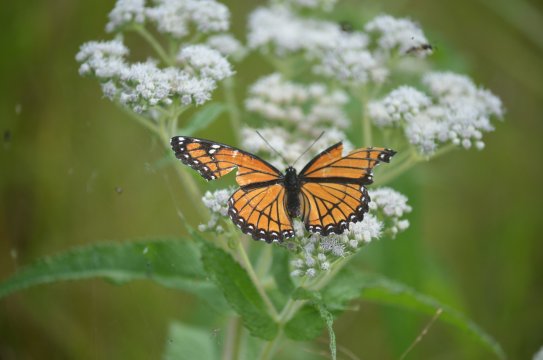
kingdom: Animalia
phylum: Arthropoda
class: Insecta
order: Lepidoptera
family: Nymphalidae
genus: Limenitis
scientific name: Limenitis archippus
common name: Viceroy
